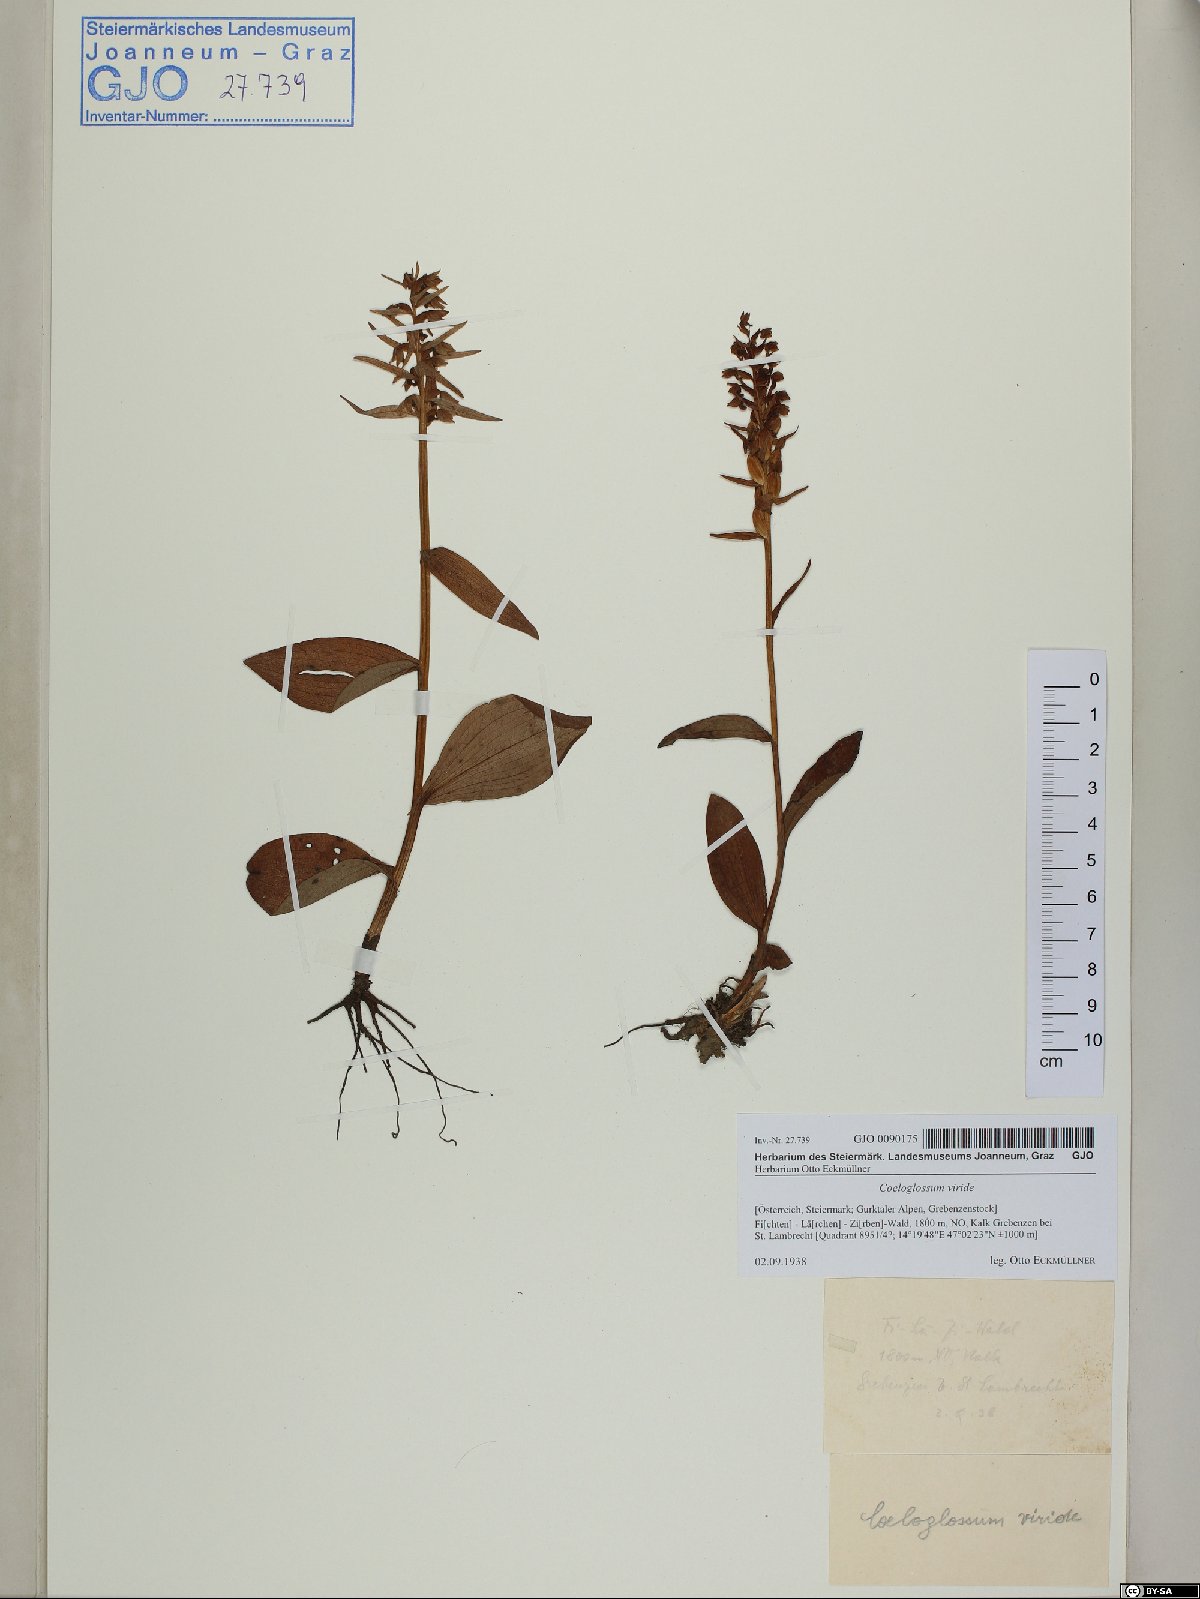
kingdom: Plantae
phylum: Tracheophyta
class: Liliopsida
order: Asparagales
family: Orchidaceae
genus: Dactylorhiza
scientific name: Dactylorhiza viridis
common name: Longbract frog orchid
